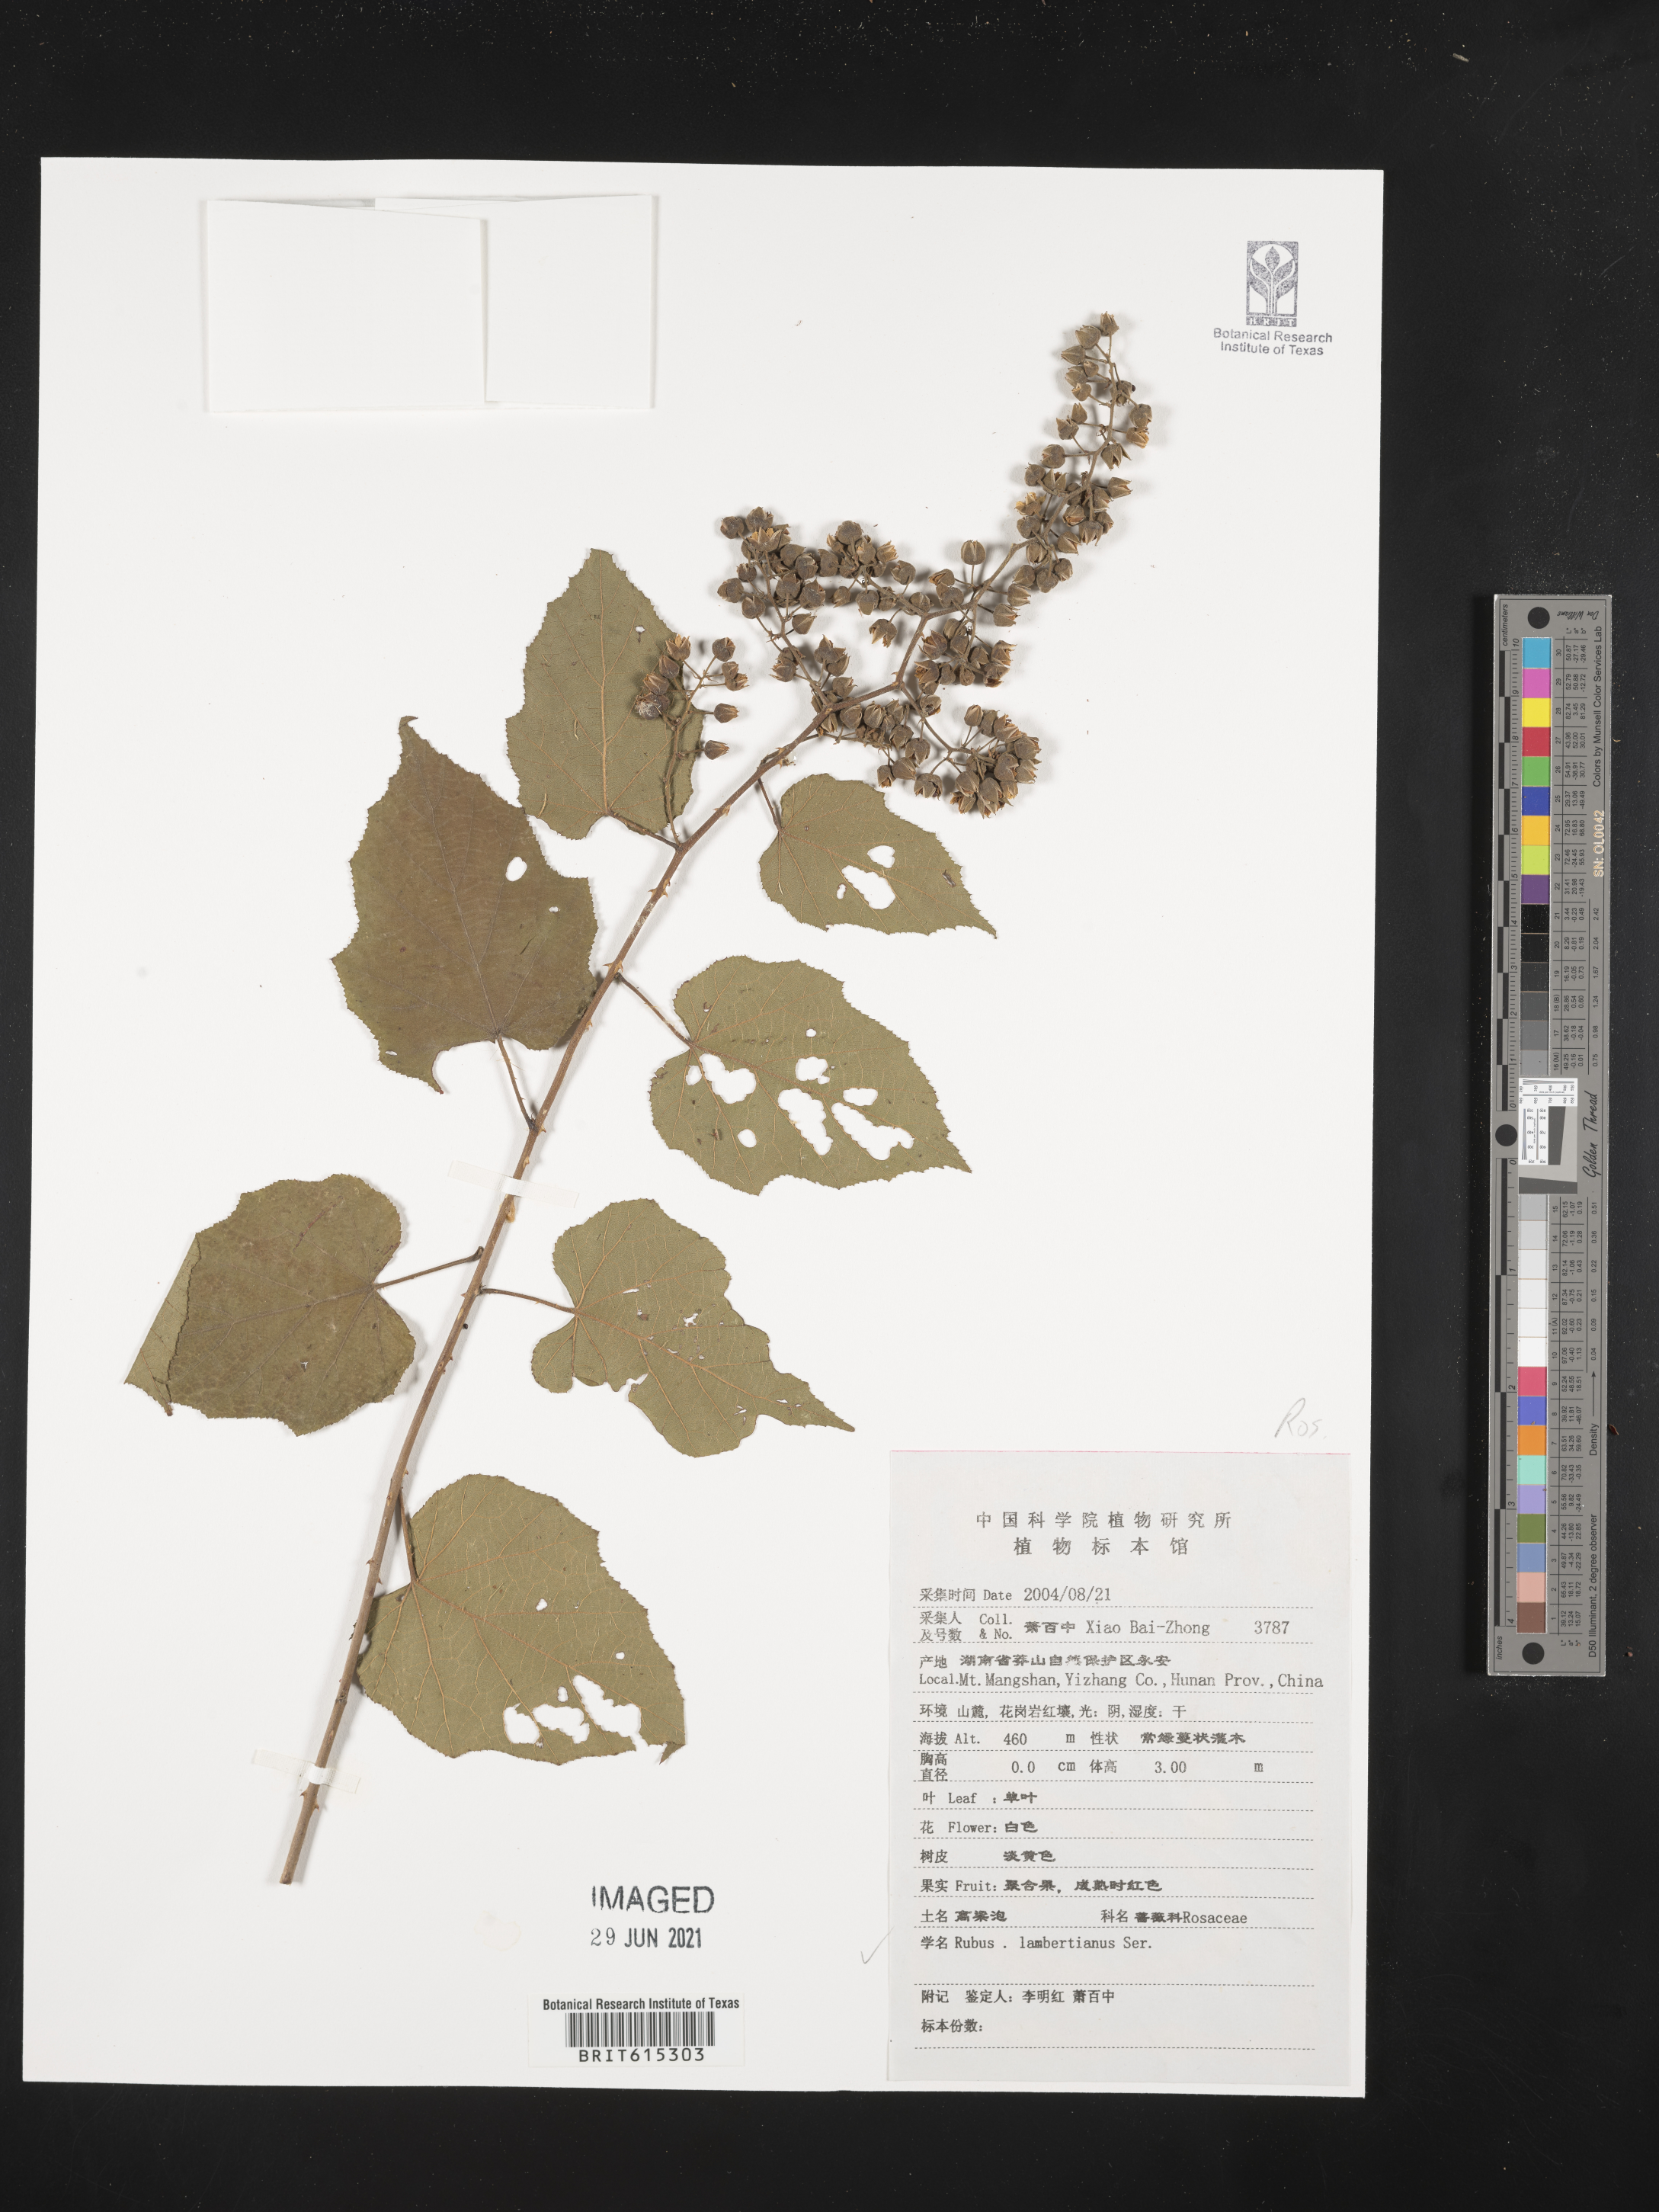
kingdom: Plantae
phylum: Tracheophyta
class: Magnoliopsida
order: Rosales
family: Rosaceae
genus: Rubus
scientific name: Rubus lambertianus
